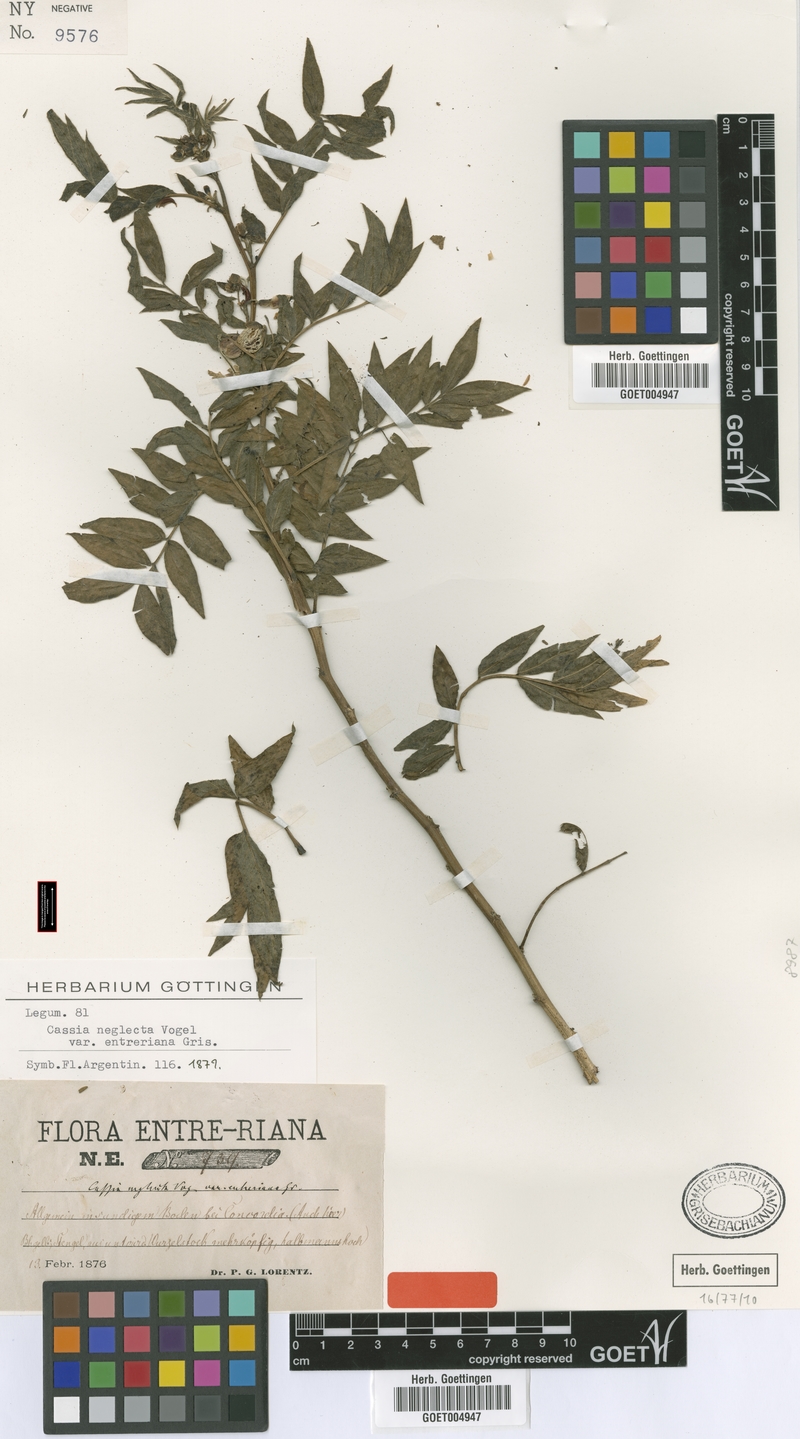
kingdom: Plantae
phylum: Tracheophyta
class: Magnoliopsida
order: Fabales
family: Fabaceae
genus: Senna
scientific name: Senna scabriuscula
